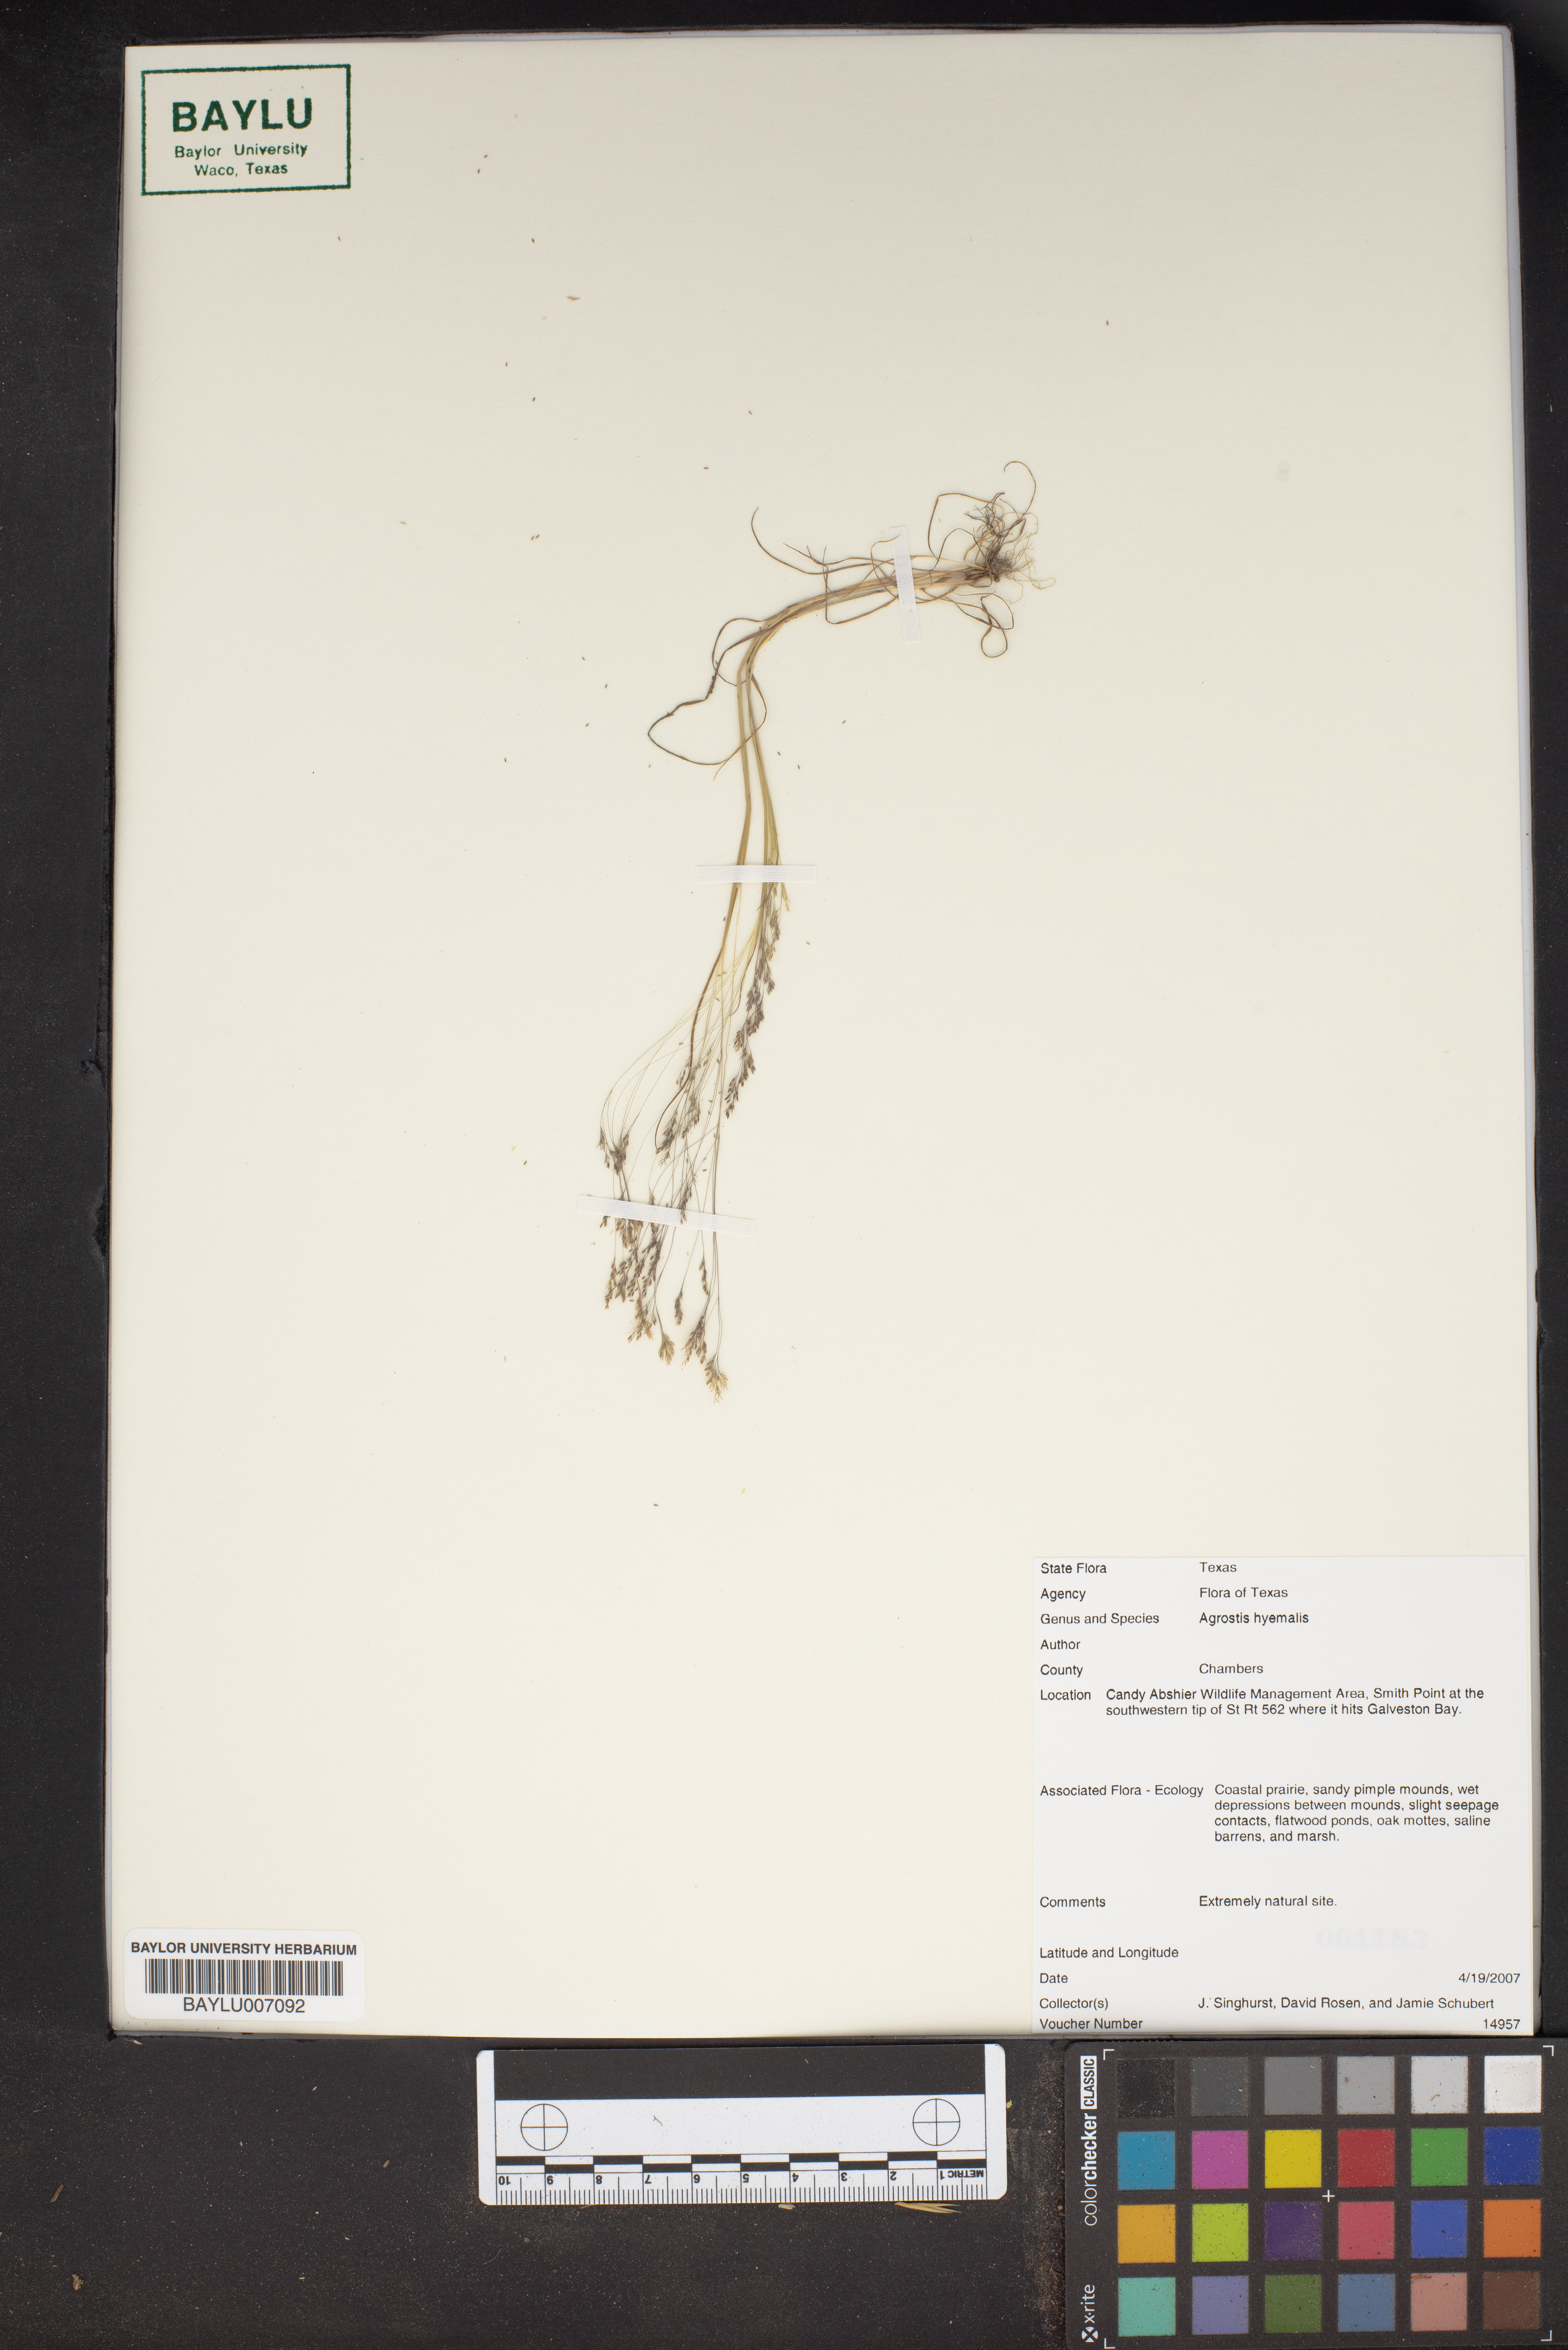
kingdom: Plantae
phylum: Tracheophyta
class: Liliopsida
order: Poales
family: Poaceae
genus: Agrostis
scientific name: Agrostis hyemalis
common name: Small bent
